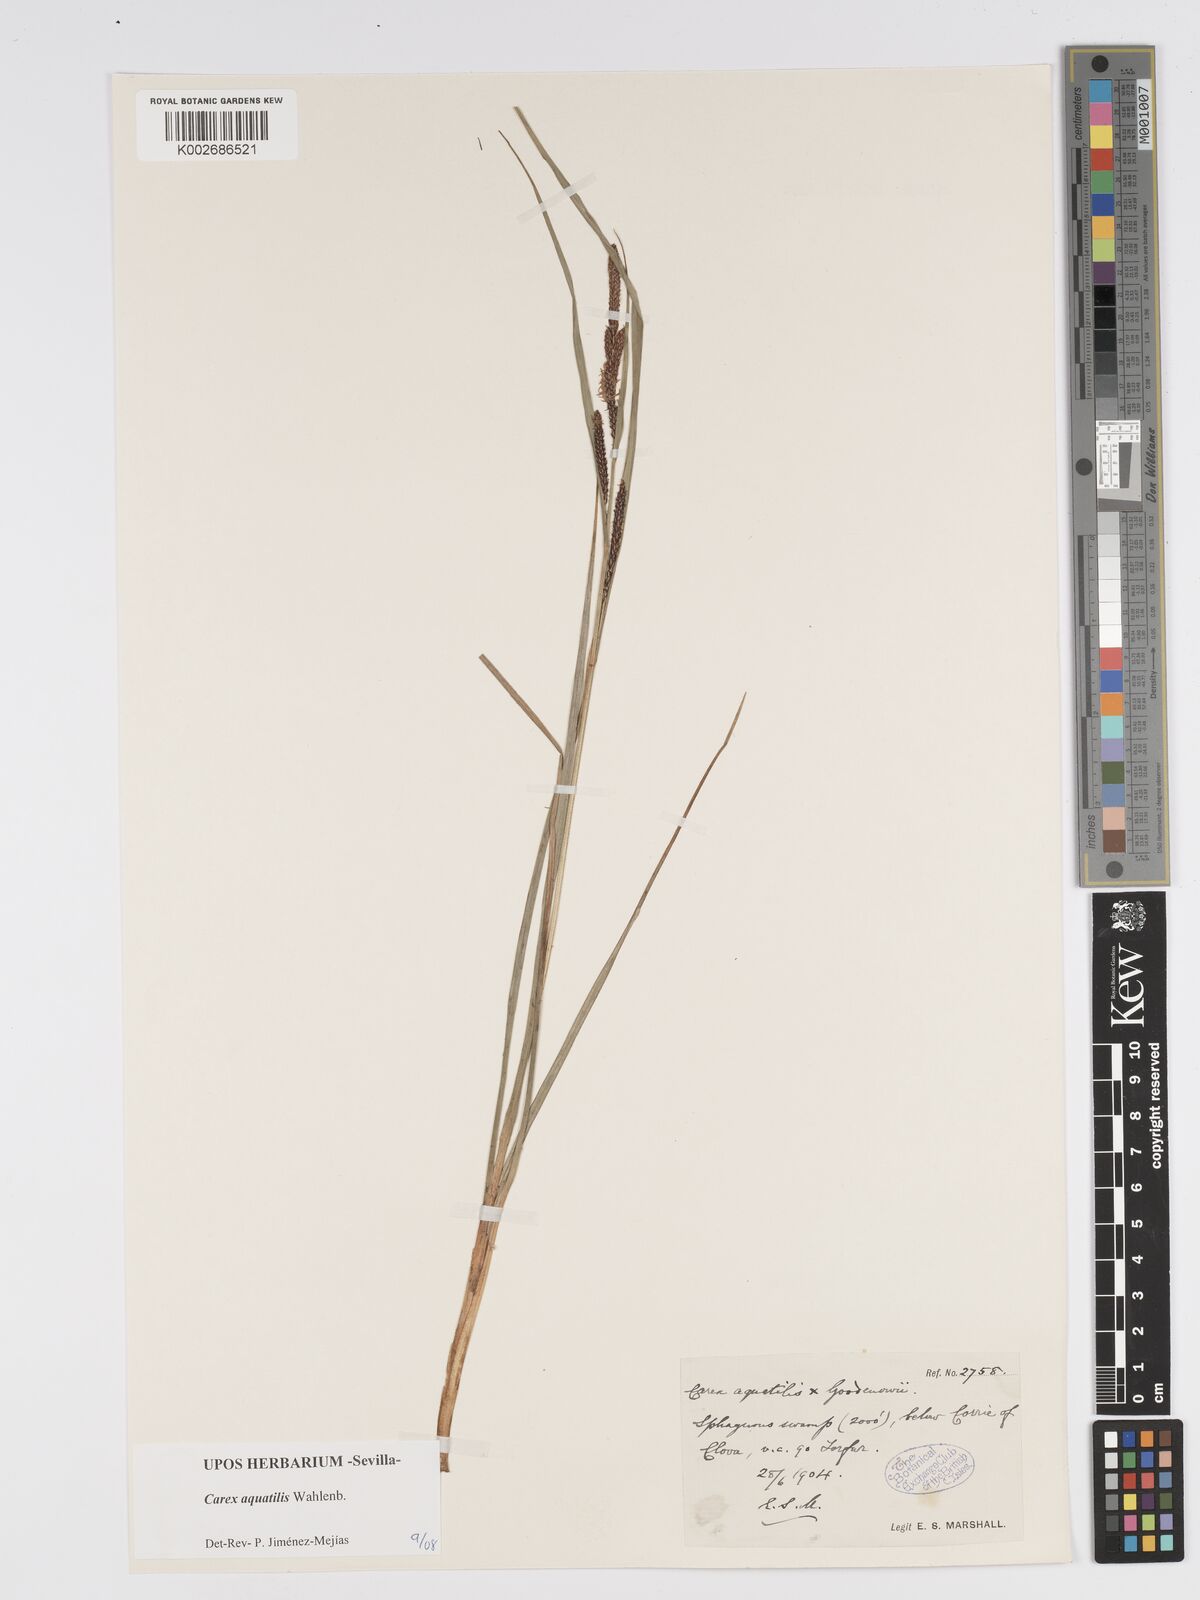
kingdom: Plantae
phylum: Tracheophyta
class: Liliopsida
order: Poales
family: Cyperaceae
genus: Carex
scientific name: Carex aquatilis
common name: Water sedge
